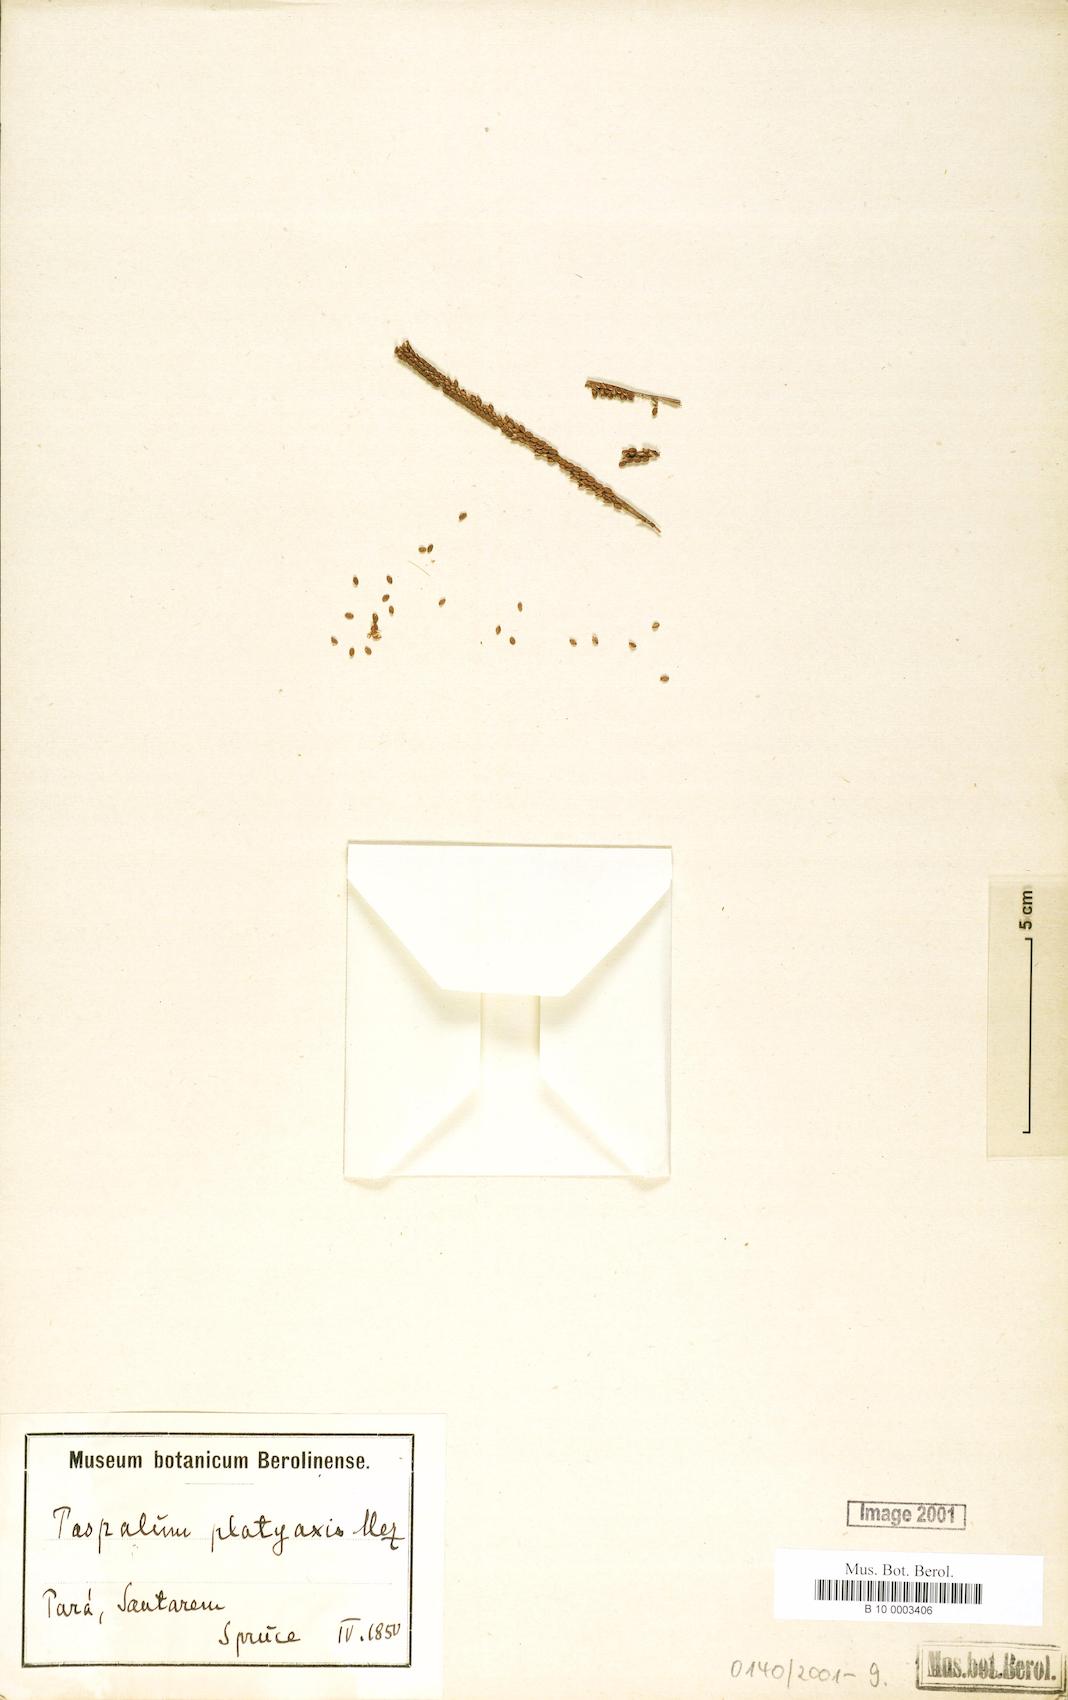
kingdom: Plantae
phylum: Tracheophyta
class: Liliopsida
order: Poales
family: Poaceae
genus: Paspalum
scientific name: Paspalum wrightii
